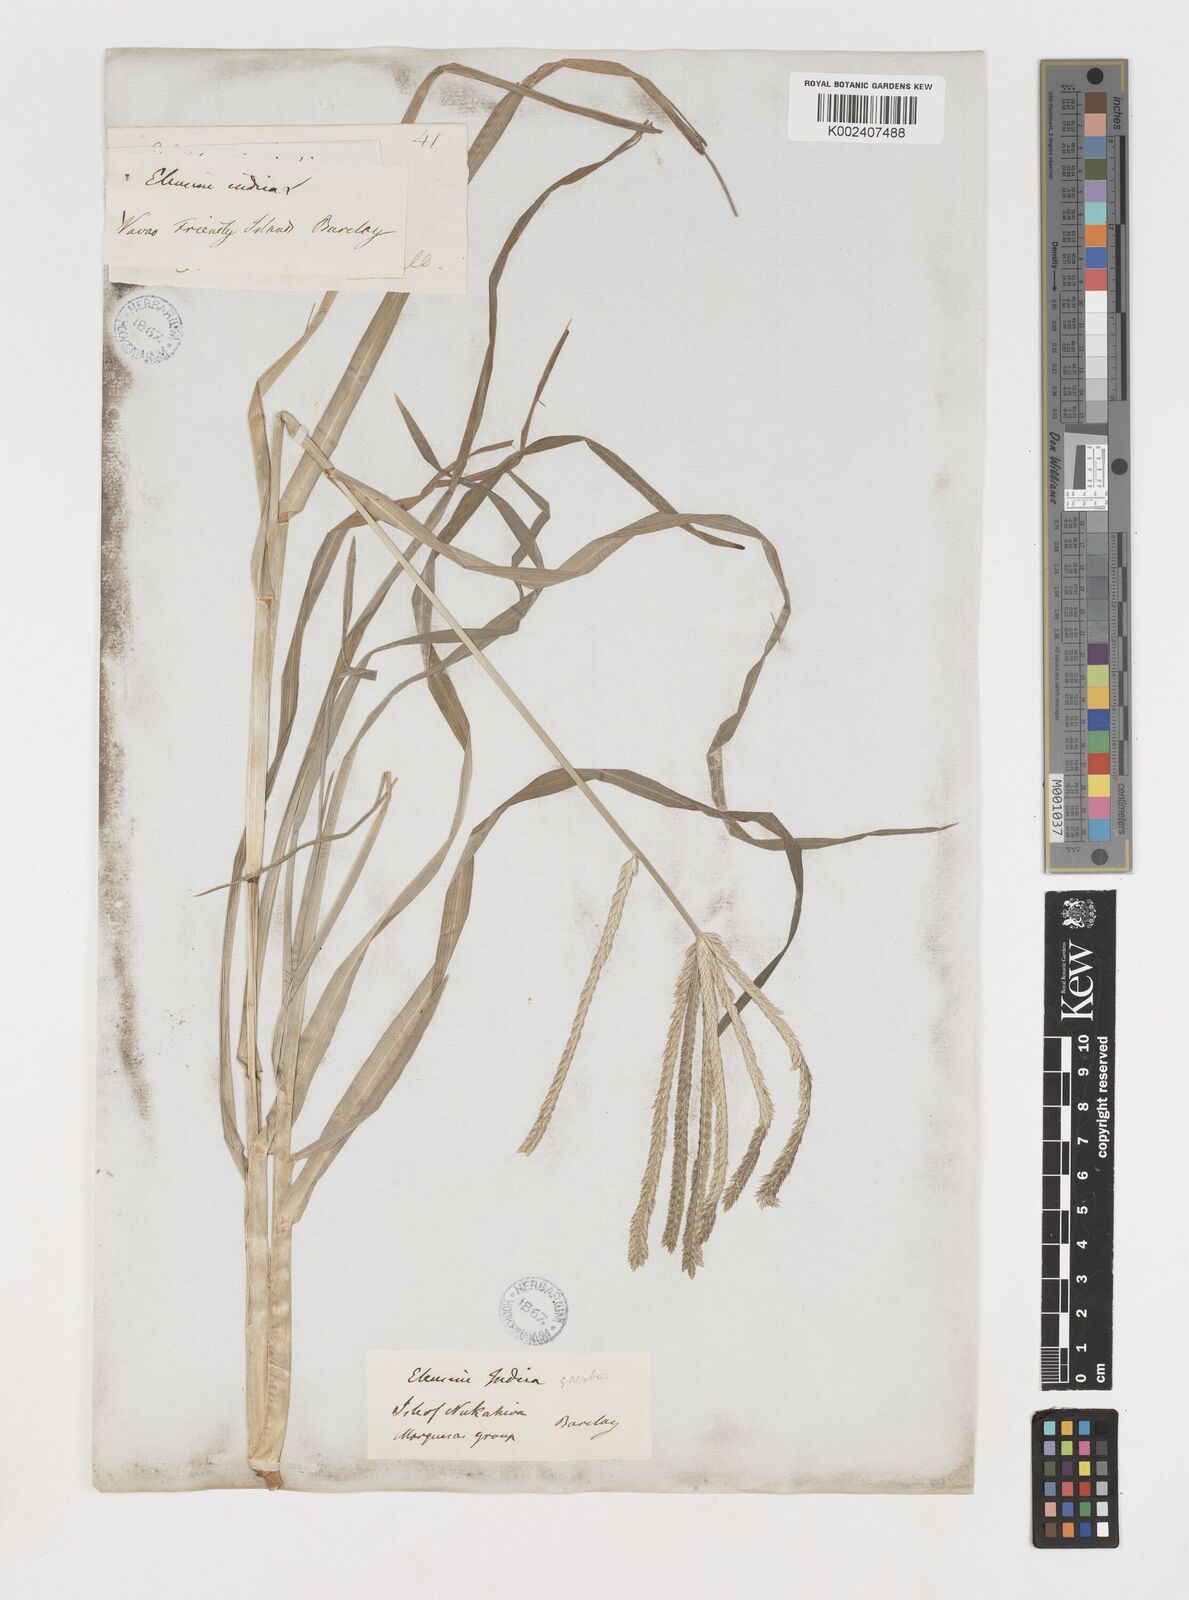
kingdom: Plantae
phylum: Tracheophyta
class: Liliopsida
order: Poales
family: Poaceae
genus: Eleusine
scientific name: Eleusine indica
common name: Yard-grass
